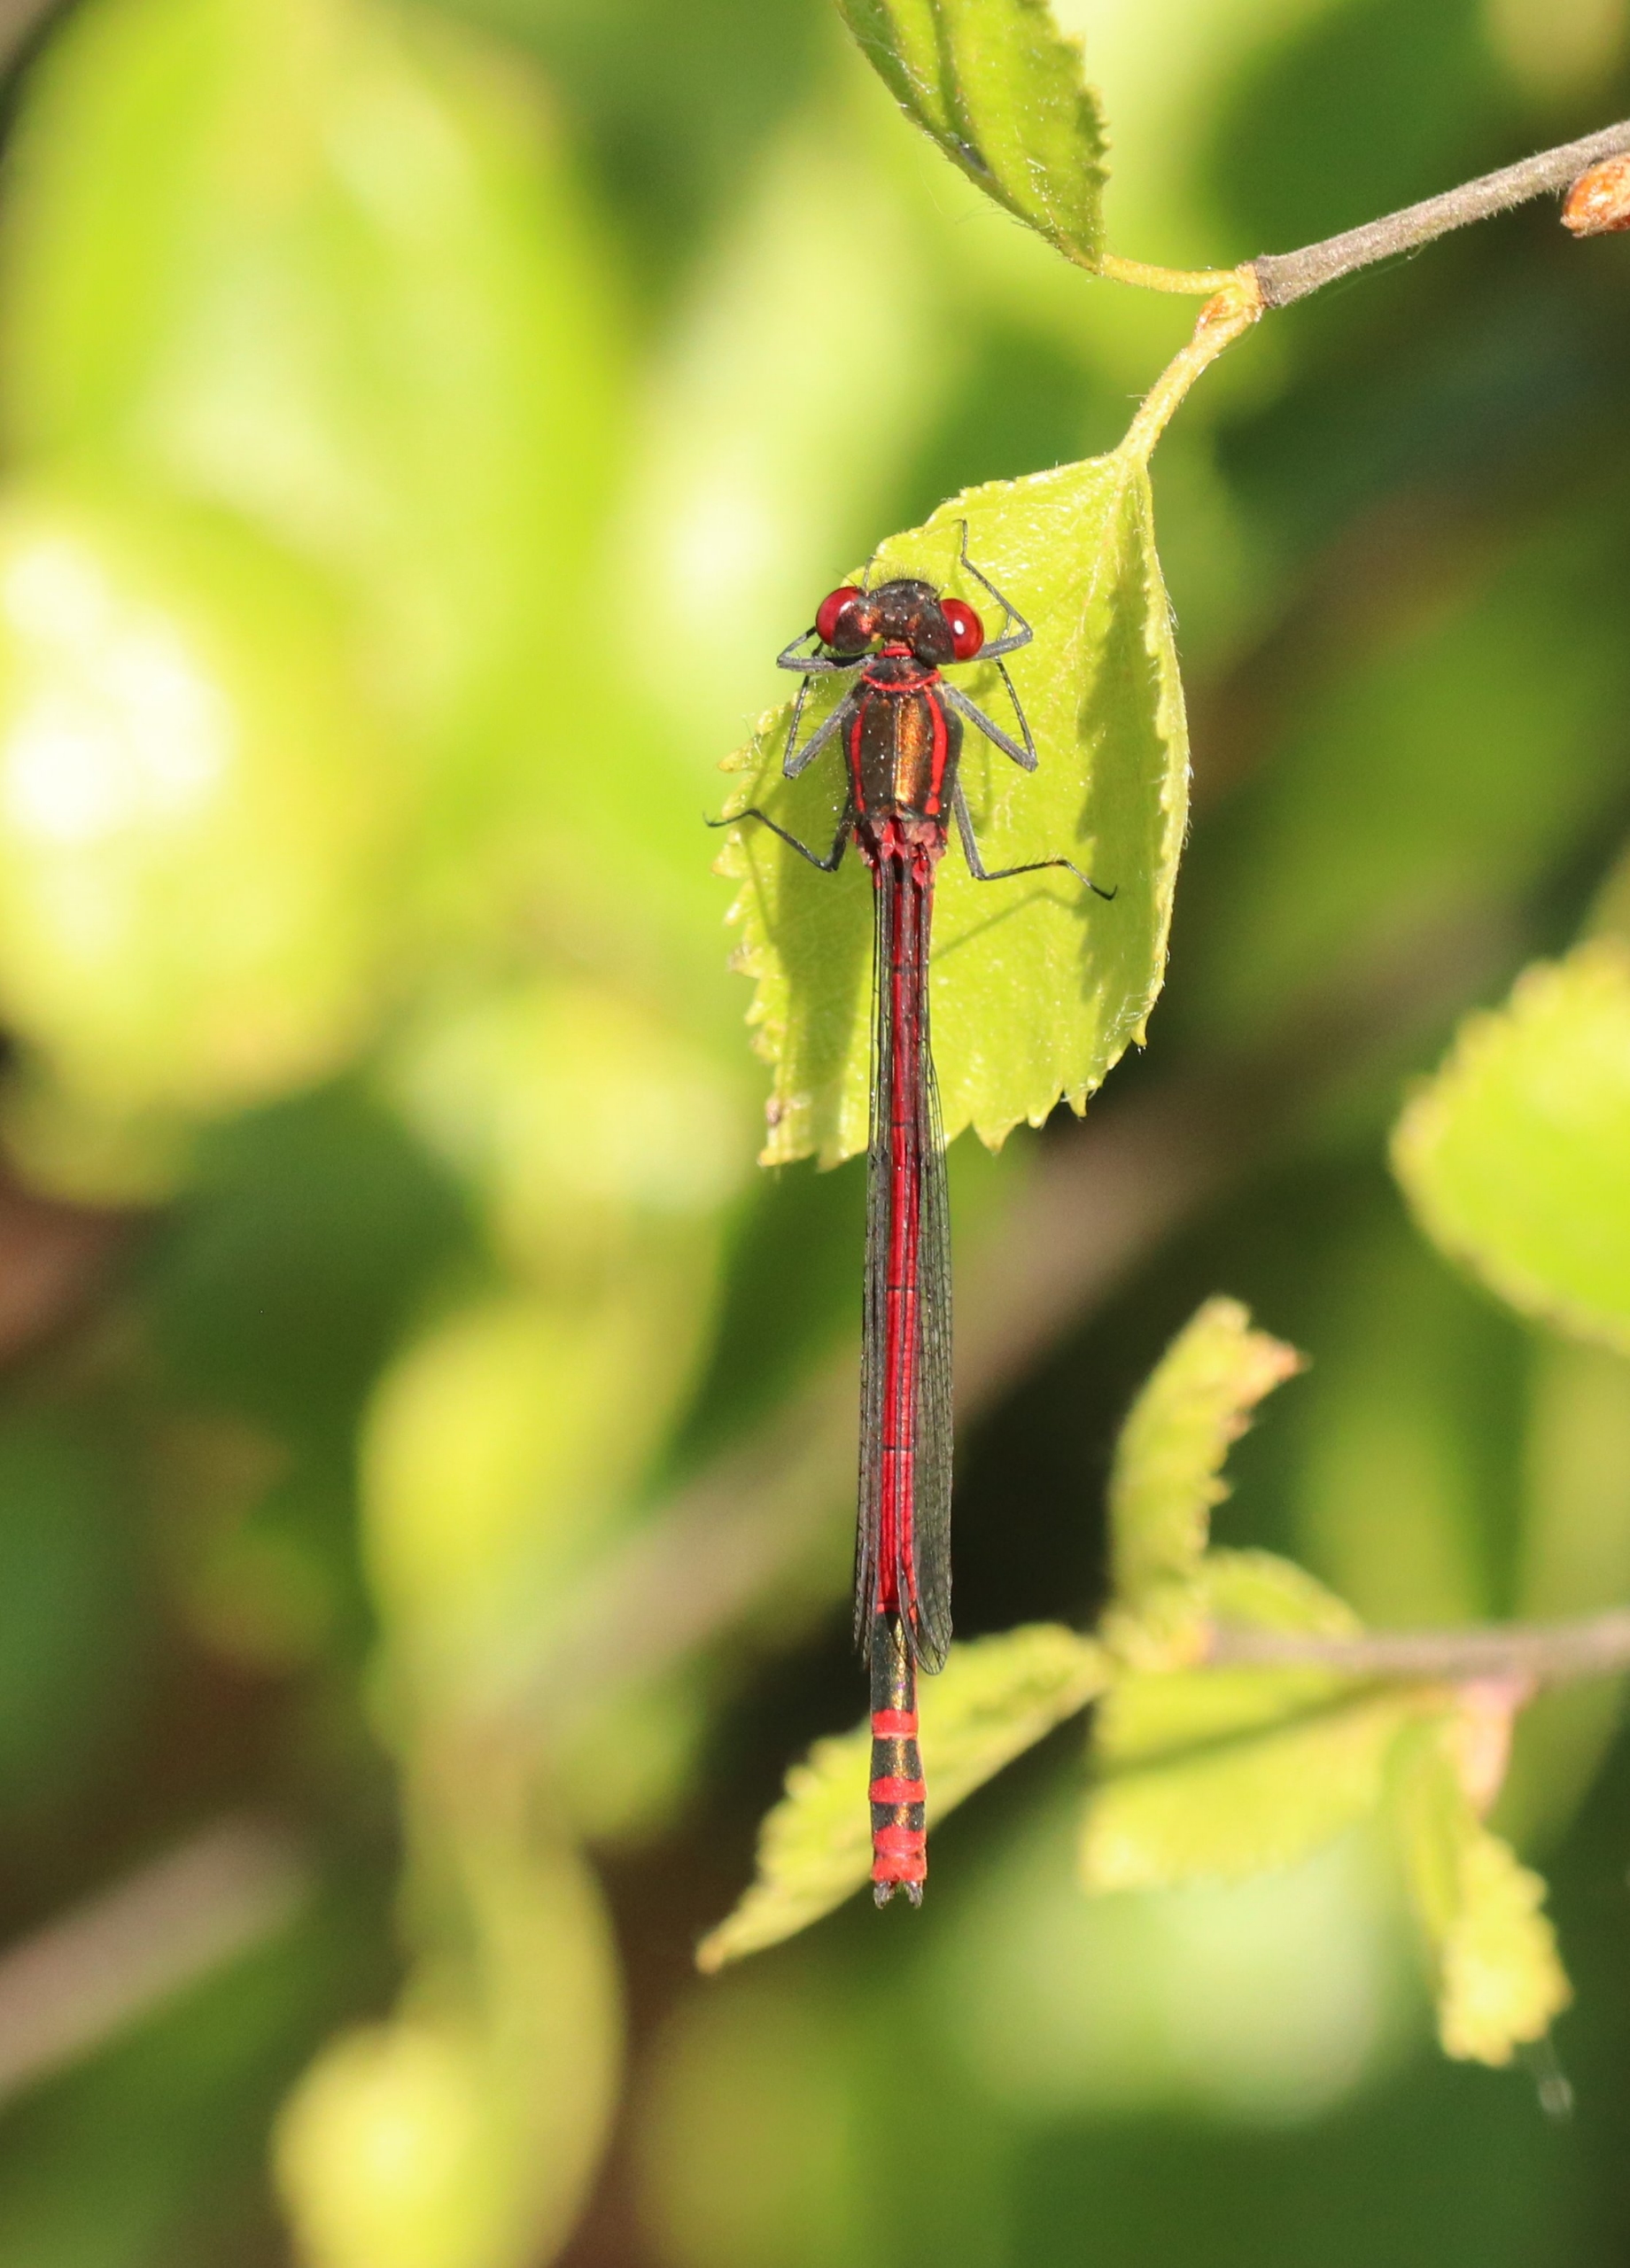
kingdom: Animalia
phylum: Arthropoda
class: Insecta
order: Odonata
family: Coenagrionidae
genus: Pyrrhosoma
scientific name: Pyrrhosoma nymphula
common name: Rød vandnymfe
